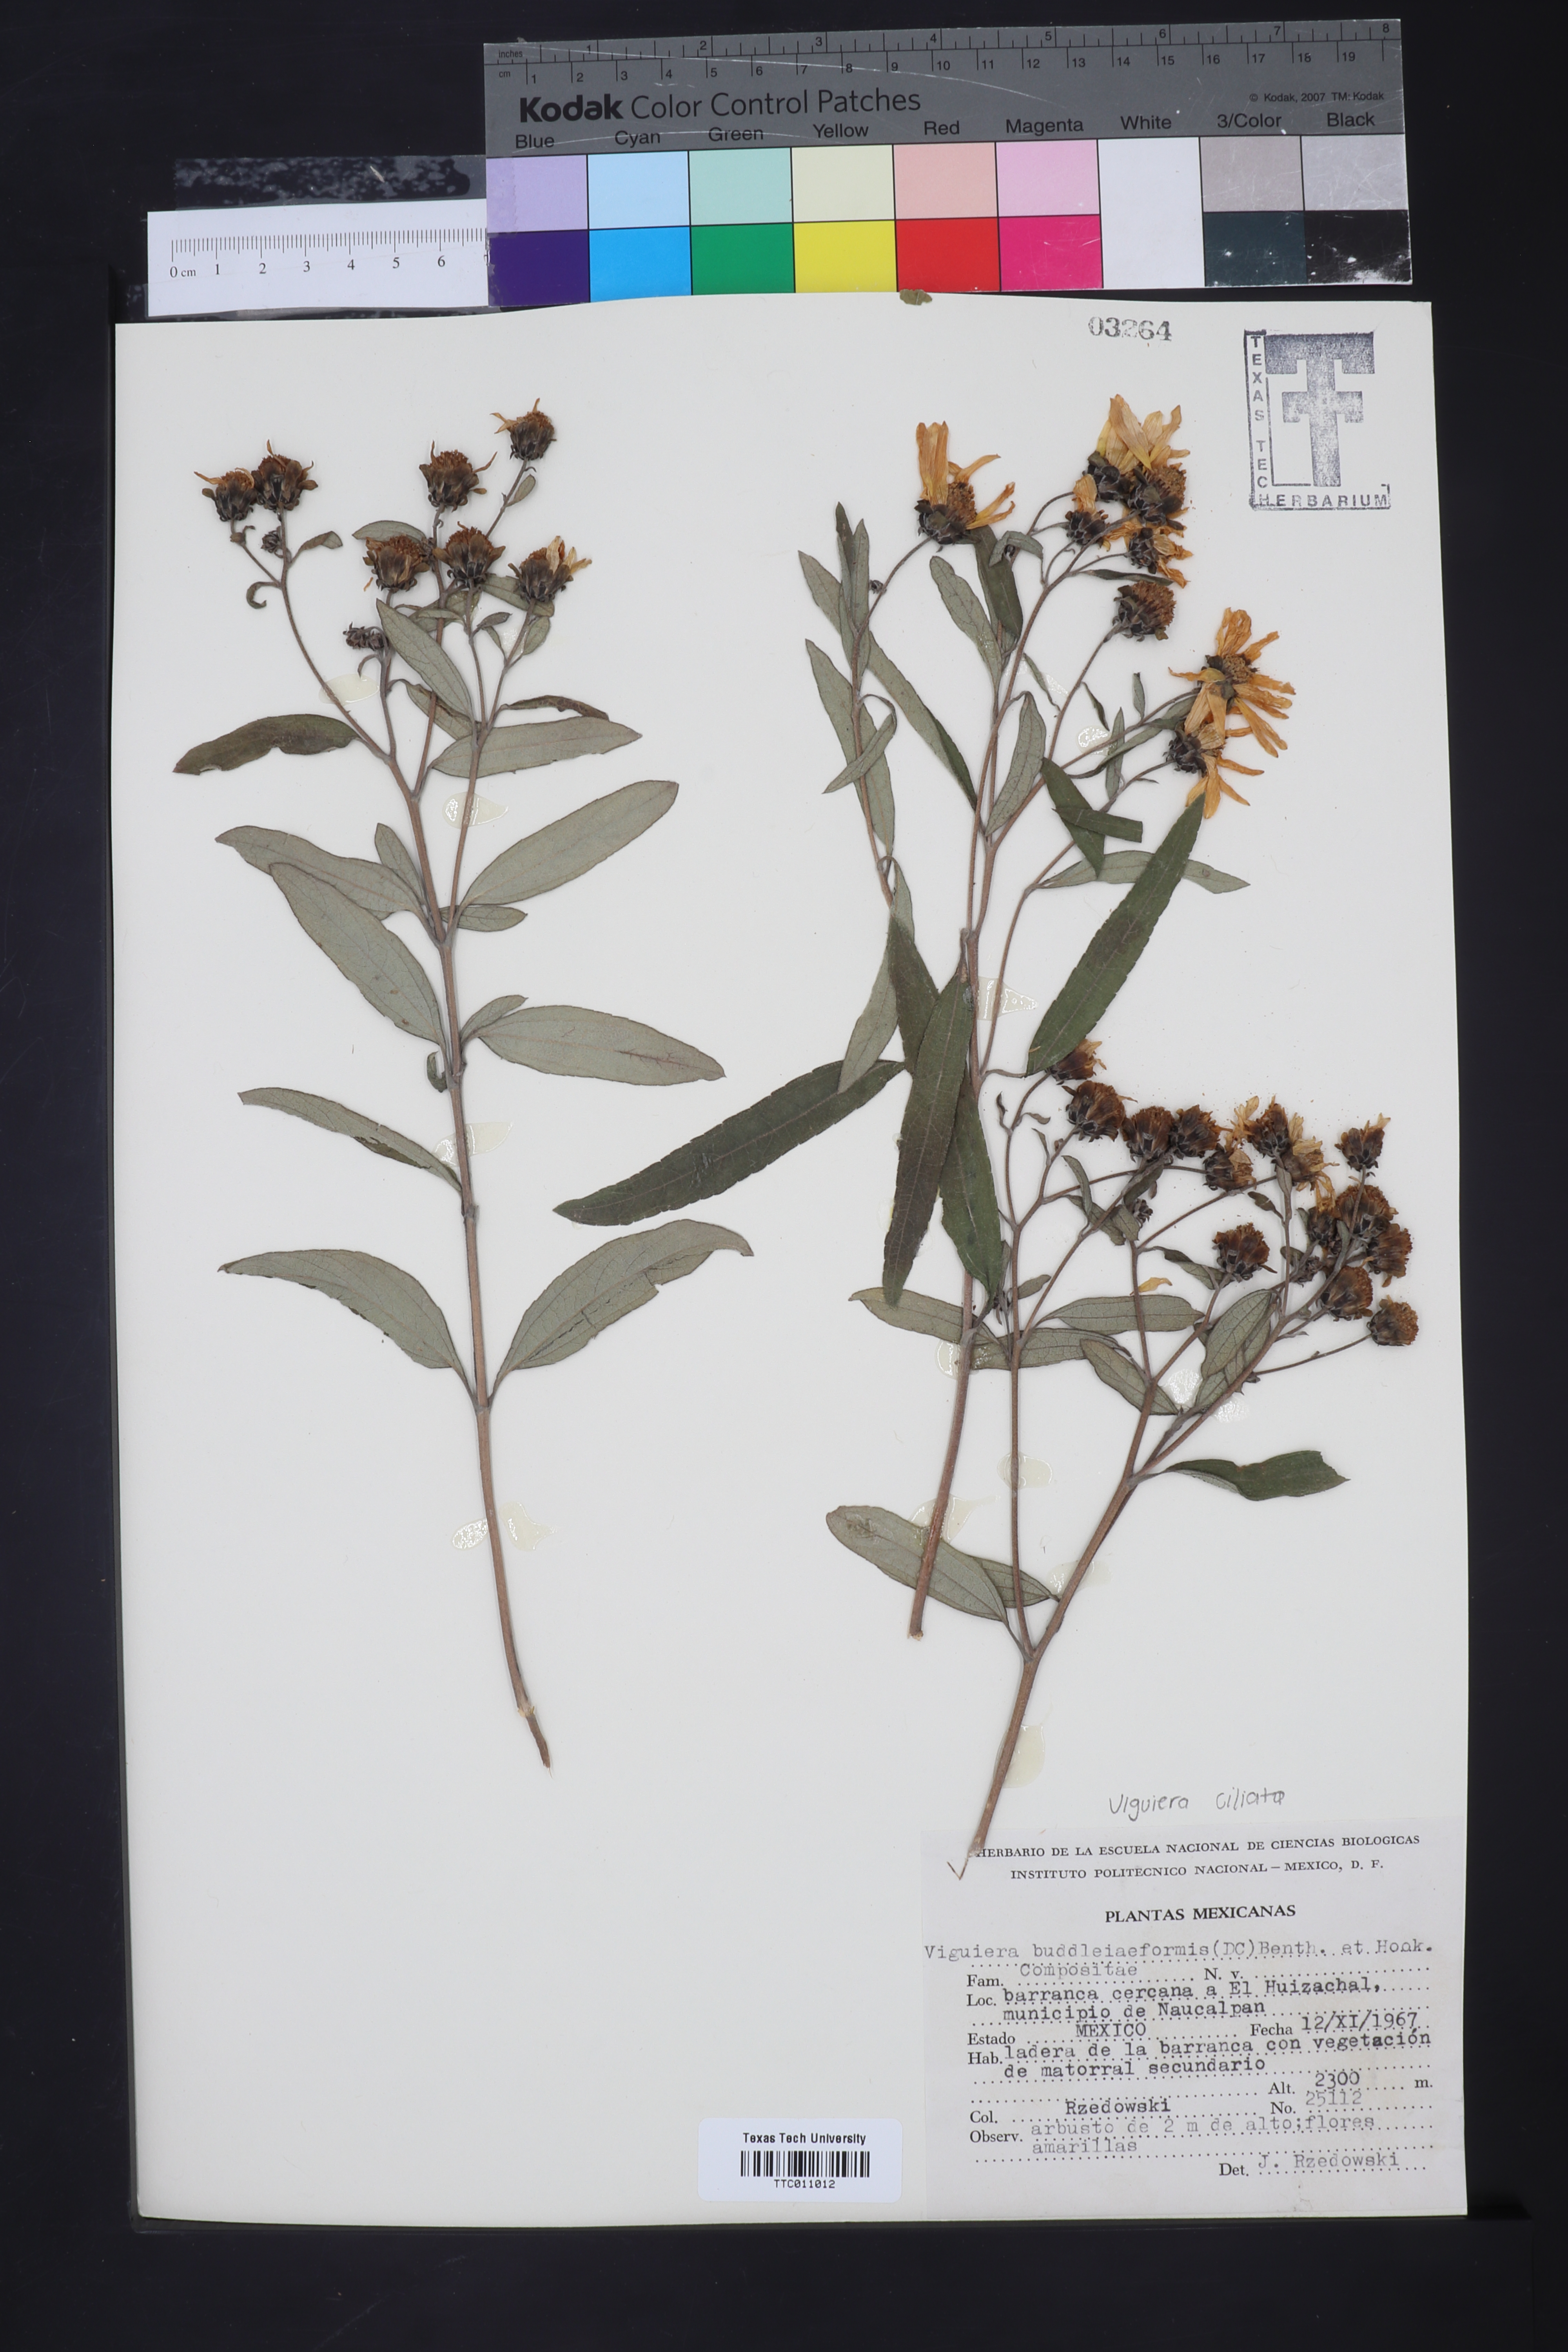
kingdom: Plantae
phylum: Tracheophyta
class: Magnoliopsida
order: Asterales
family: Asteraceae
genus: Aldama
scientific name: Aldama buddlejiformis
